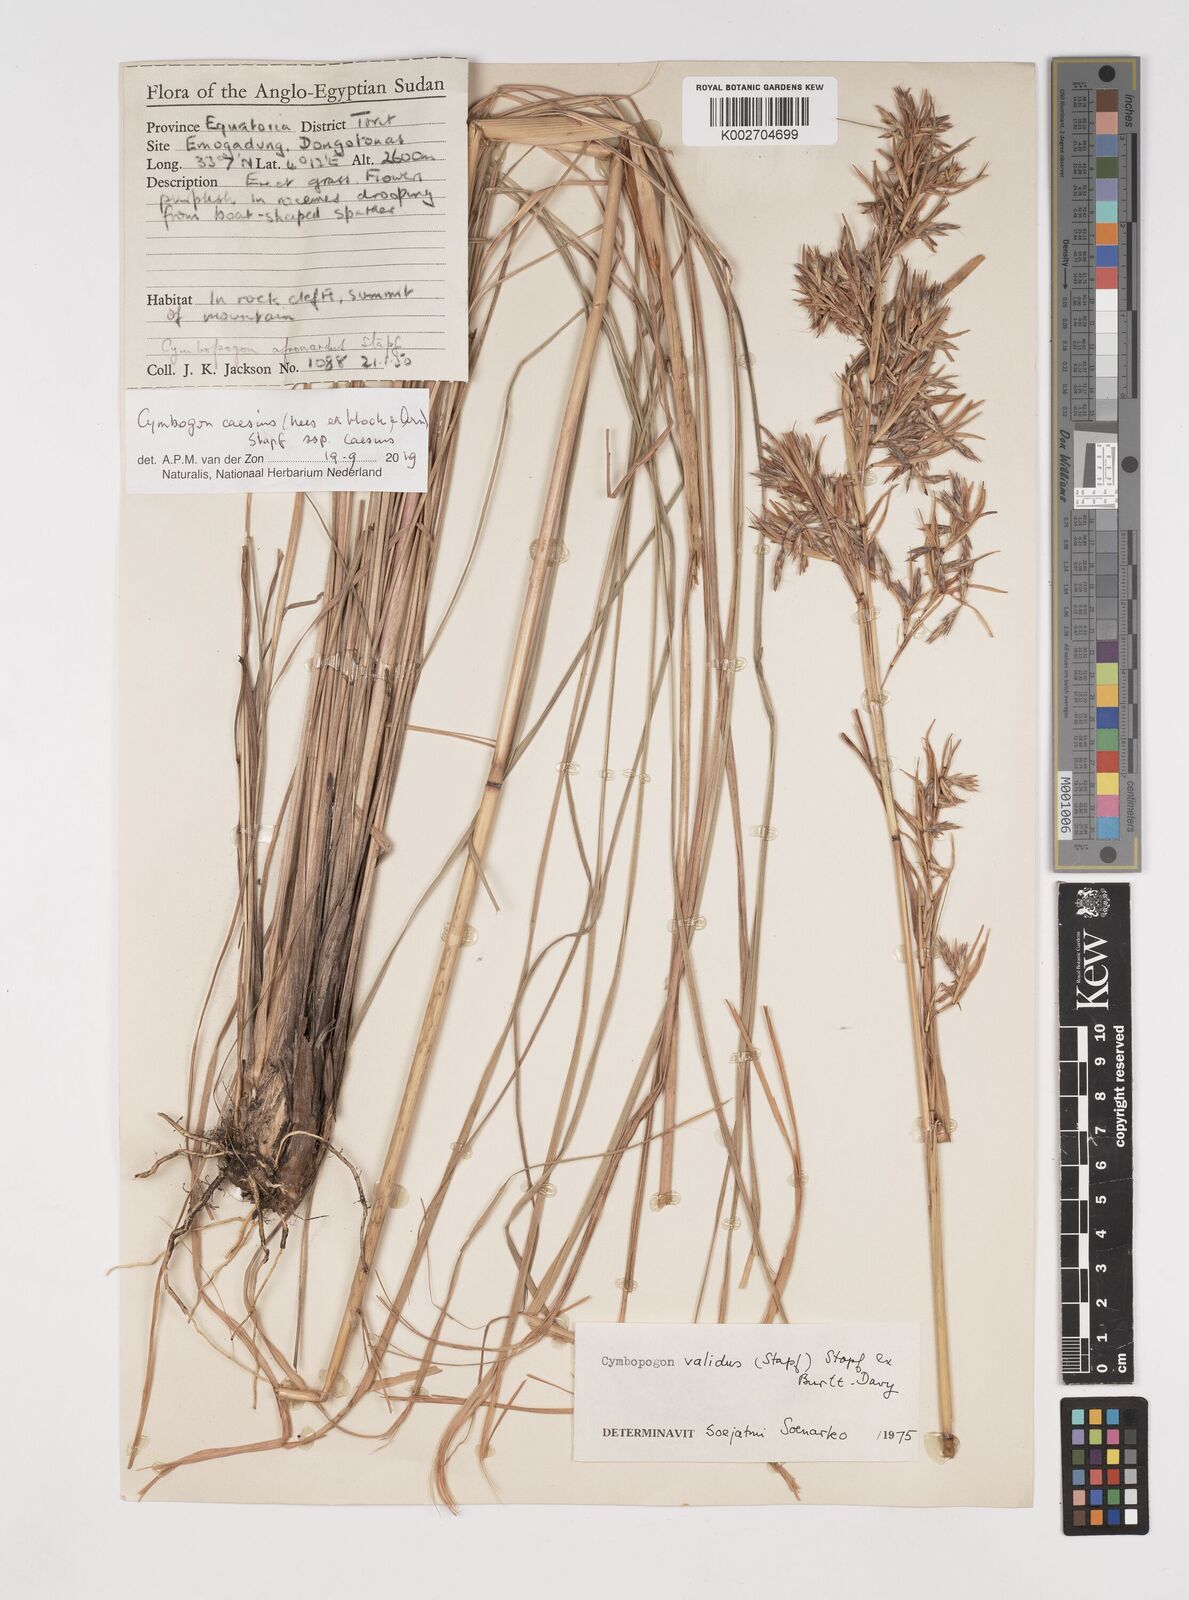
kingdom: Plantae
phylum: Tracheophyta
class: Liliopsida
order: Poales
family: Poaceae
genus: Cymbopogon
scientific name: Cymbopogon caesius
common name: Kachi grass
